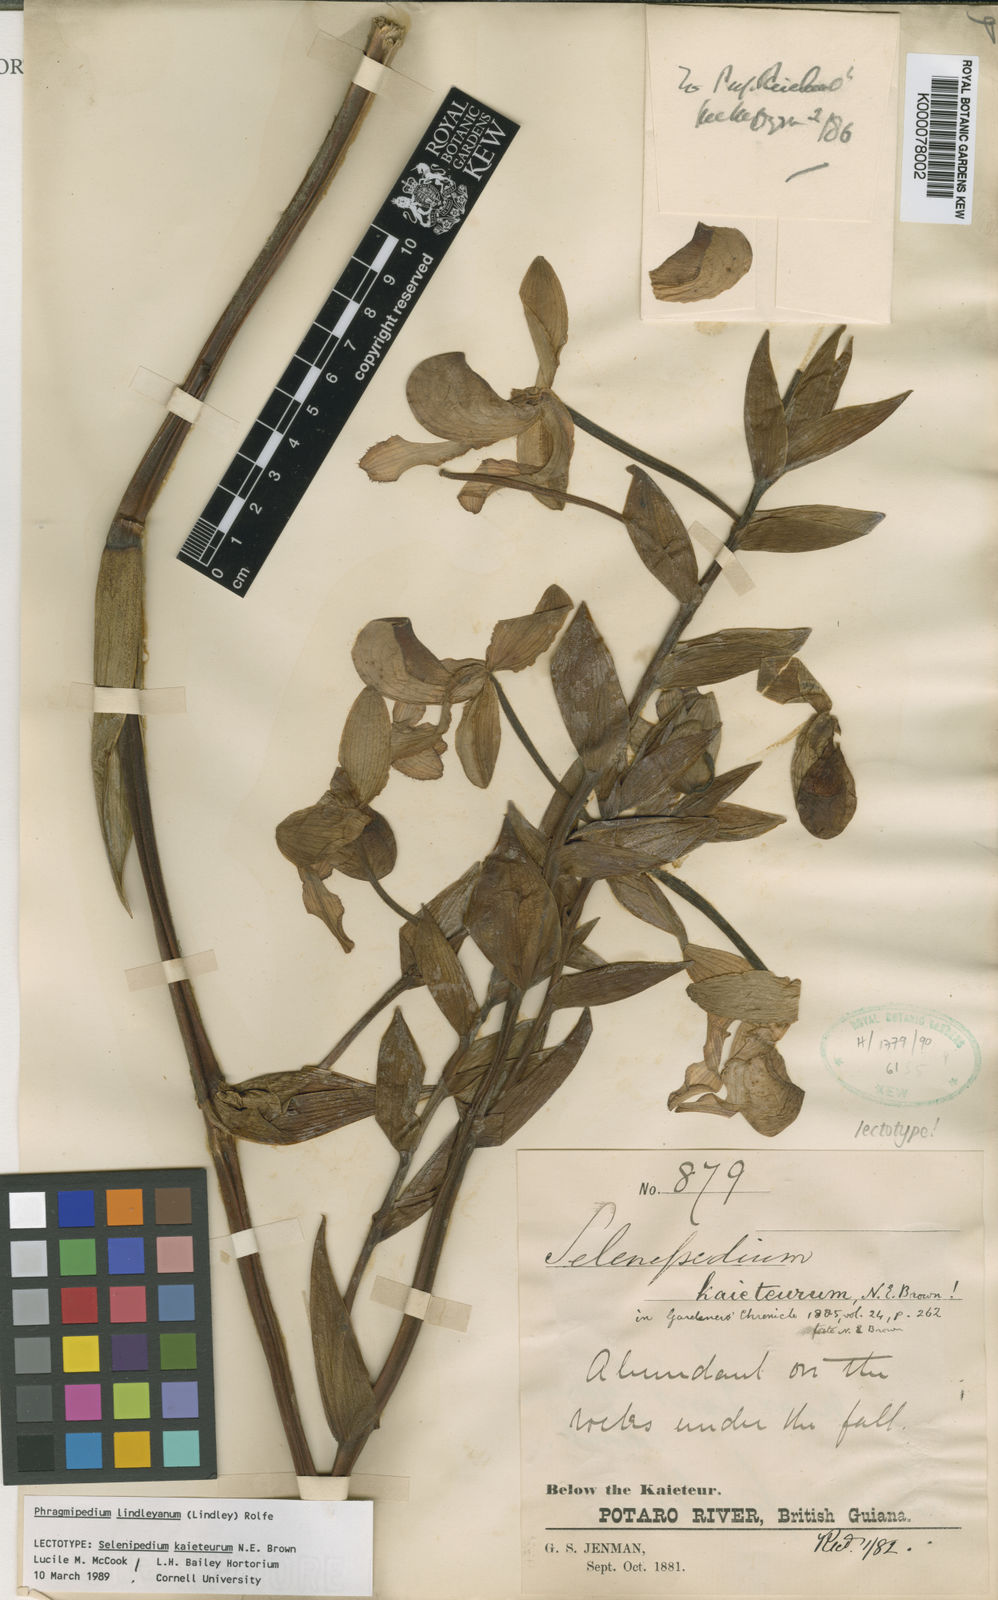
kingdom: Plantae
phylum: Tracheophyta
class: Liliopsida
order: Asparagales
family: Orchidaceae
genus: Phragmipaphium
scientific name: Phragmipaphium
